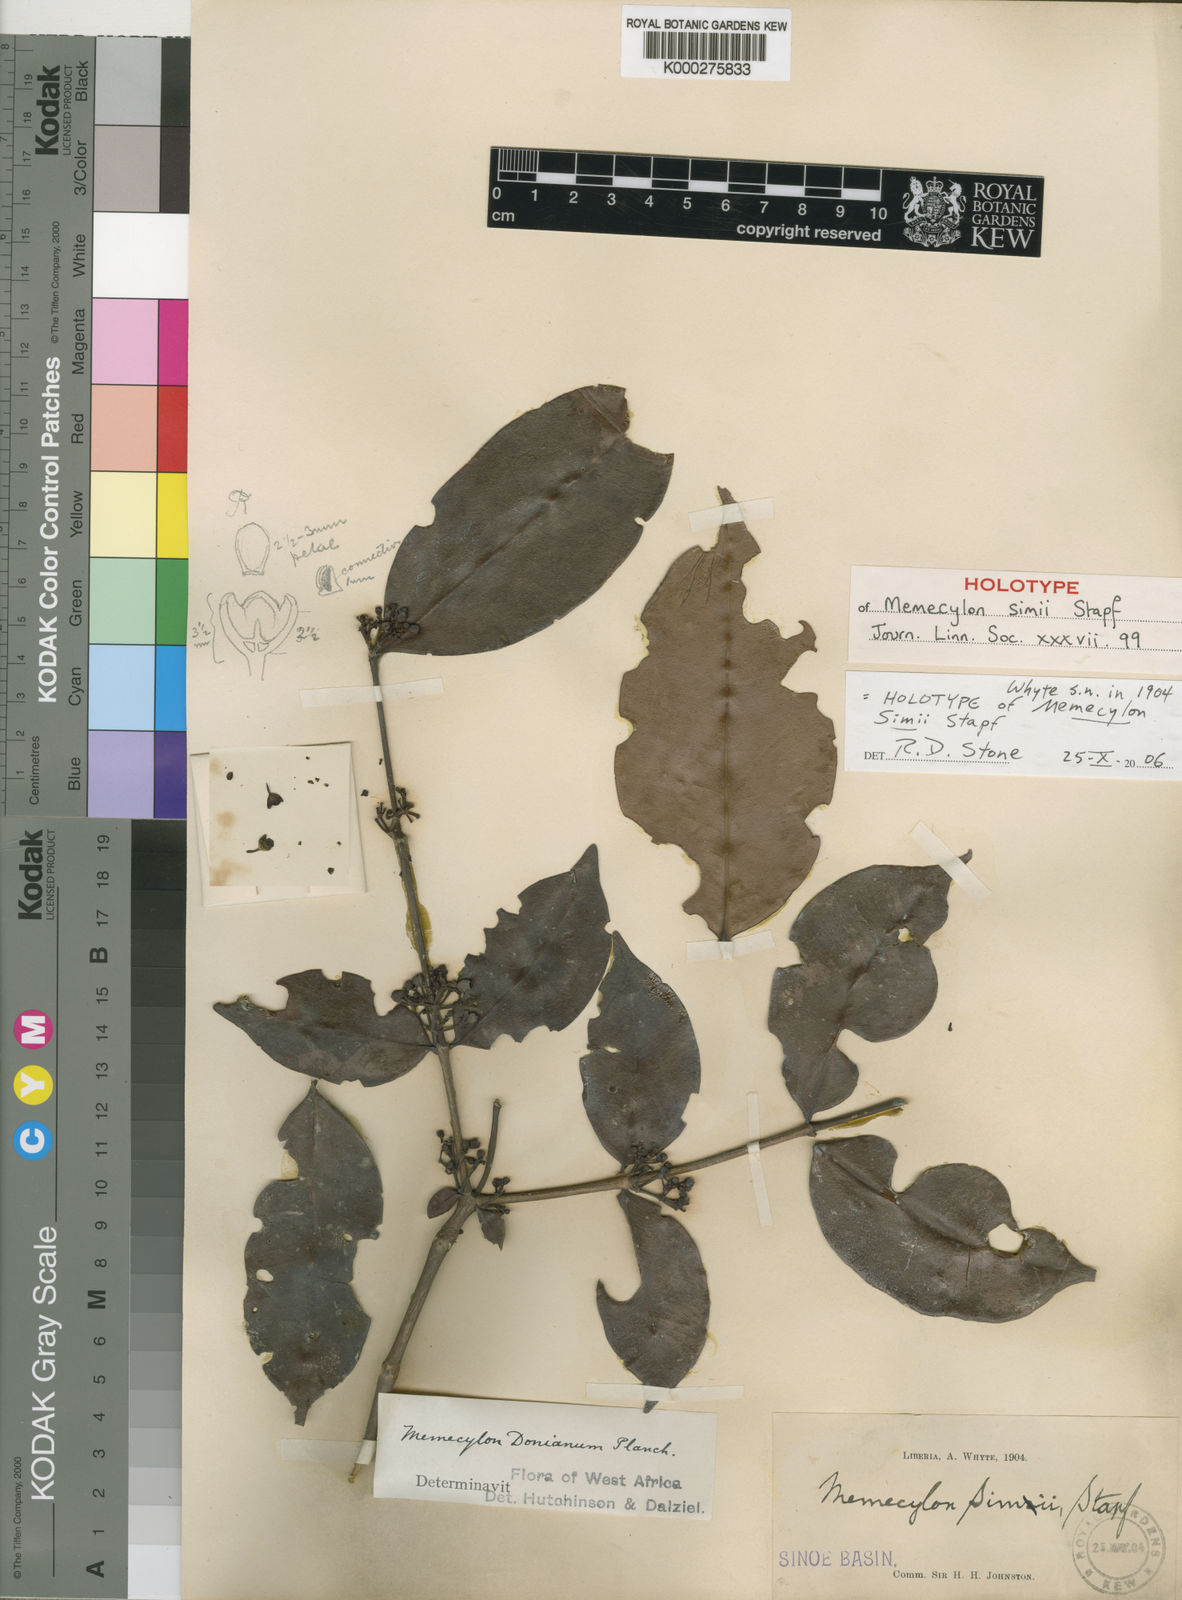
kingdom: Plantae
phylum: Tracheophyta
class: Magnoliopsida
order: Myrtales
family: Melastomataceae
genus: Memecylon
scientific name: Memecylon lateriflorum
